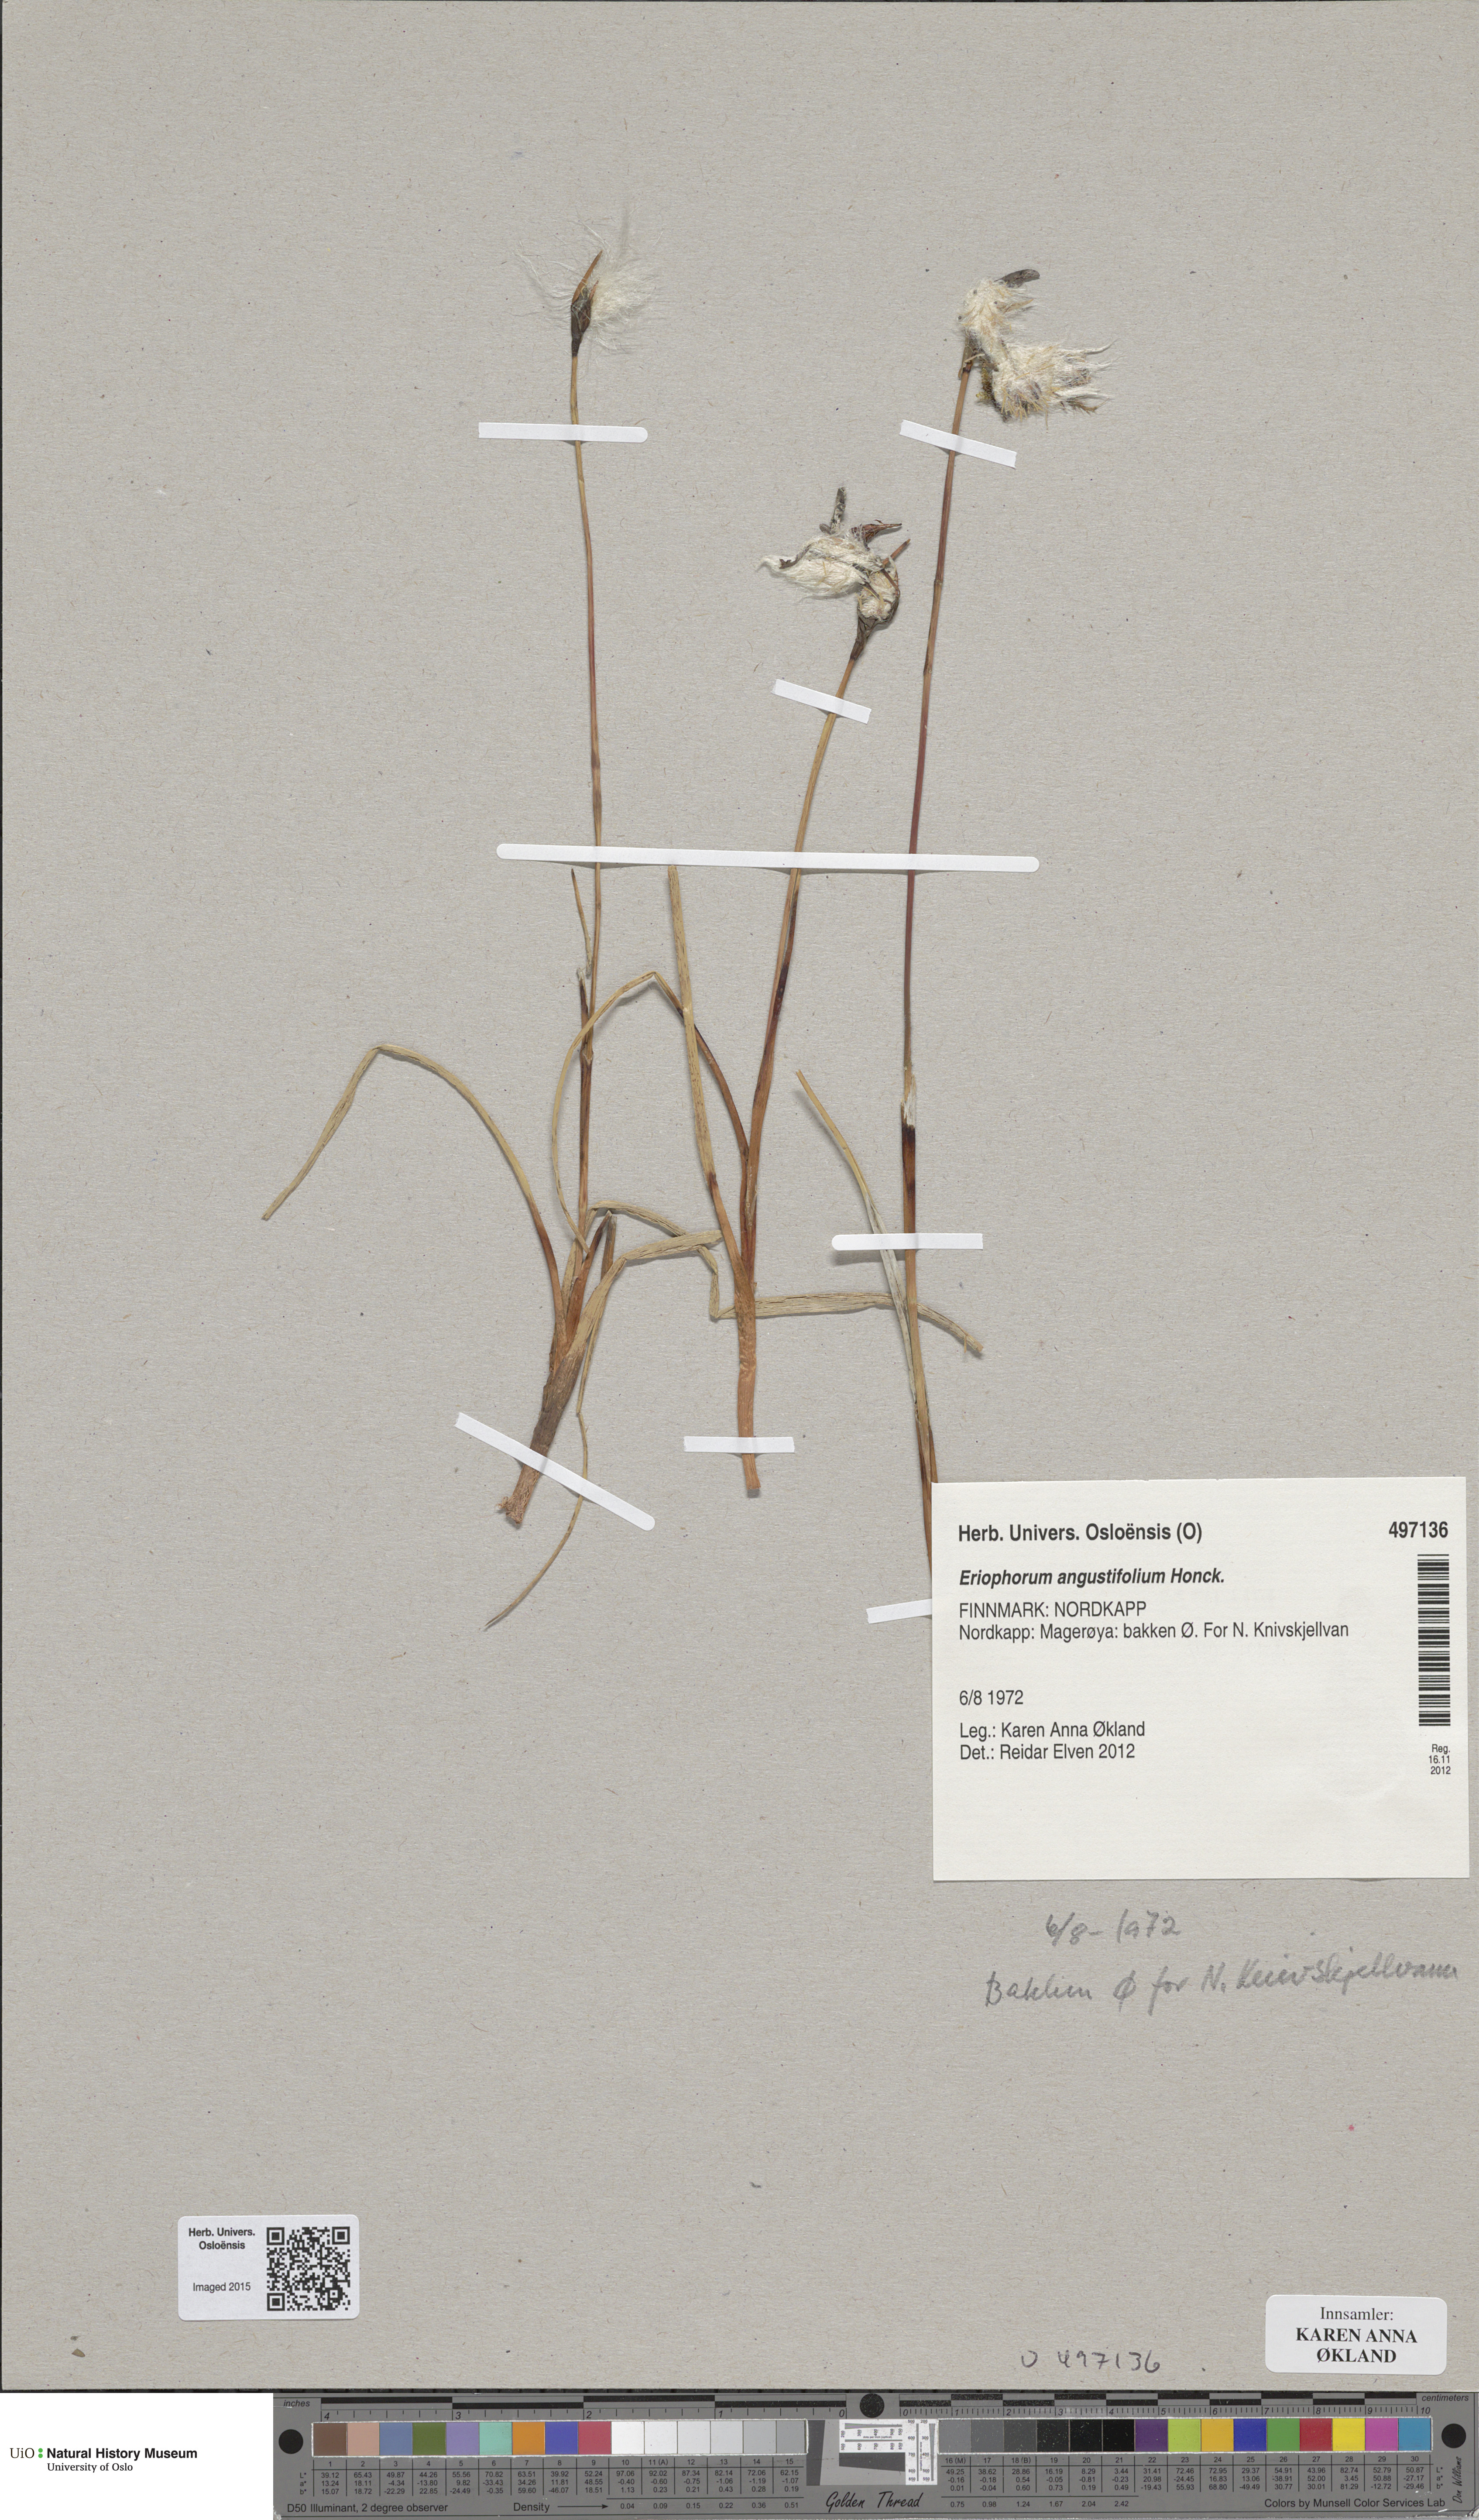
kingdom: Plantae
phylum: Tracheophyta
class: Liliopsida
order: Poales
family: Cyperaceae
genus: Eriophorum
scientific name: Eriophorum angustifolium
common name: Common cottongrass
